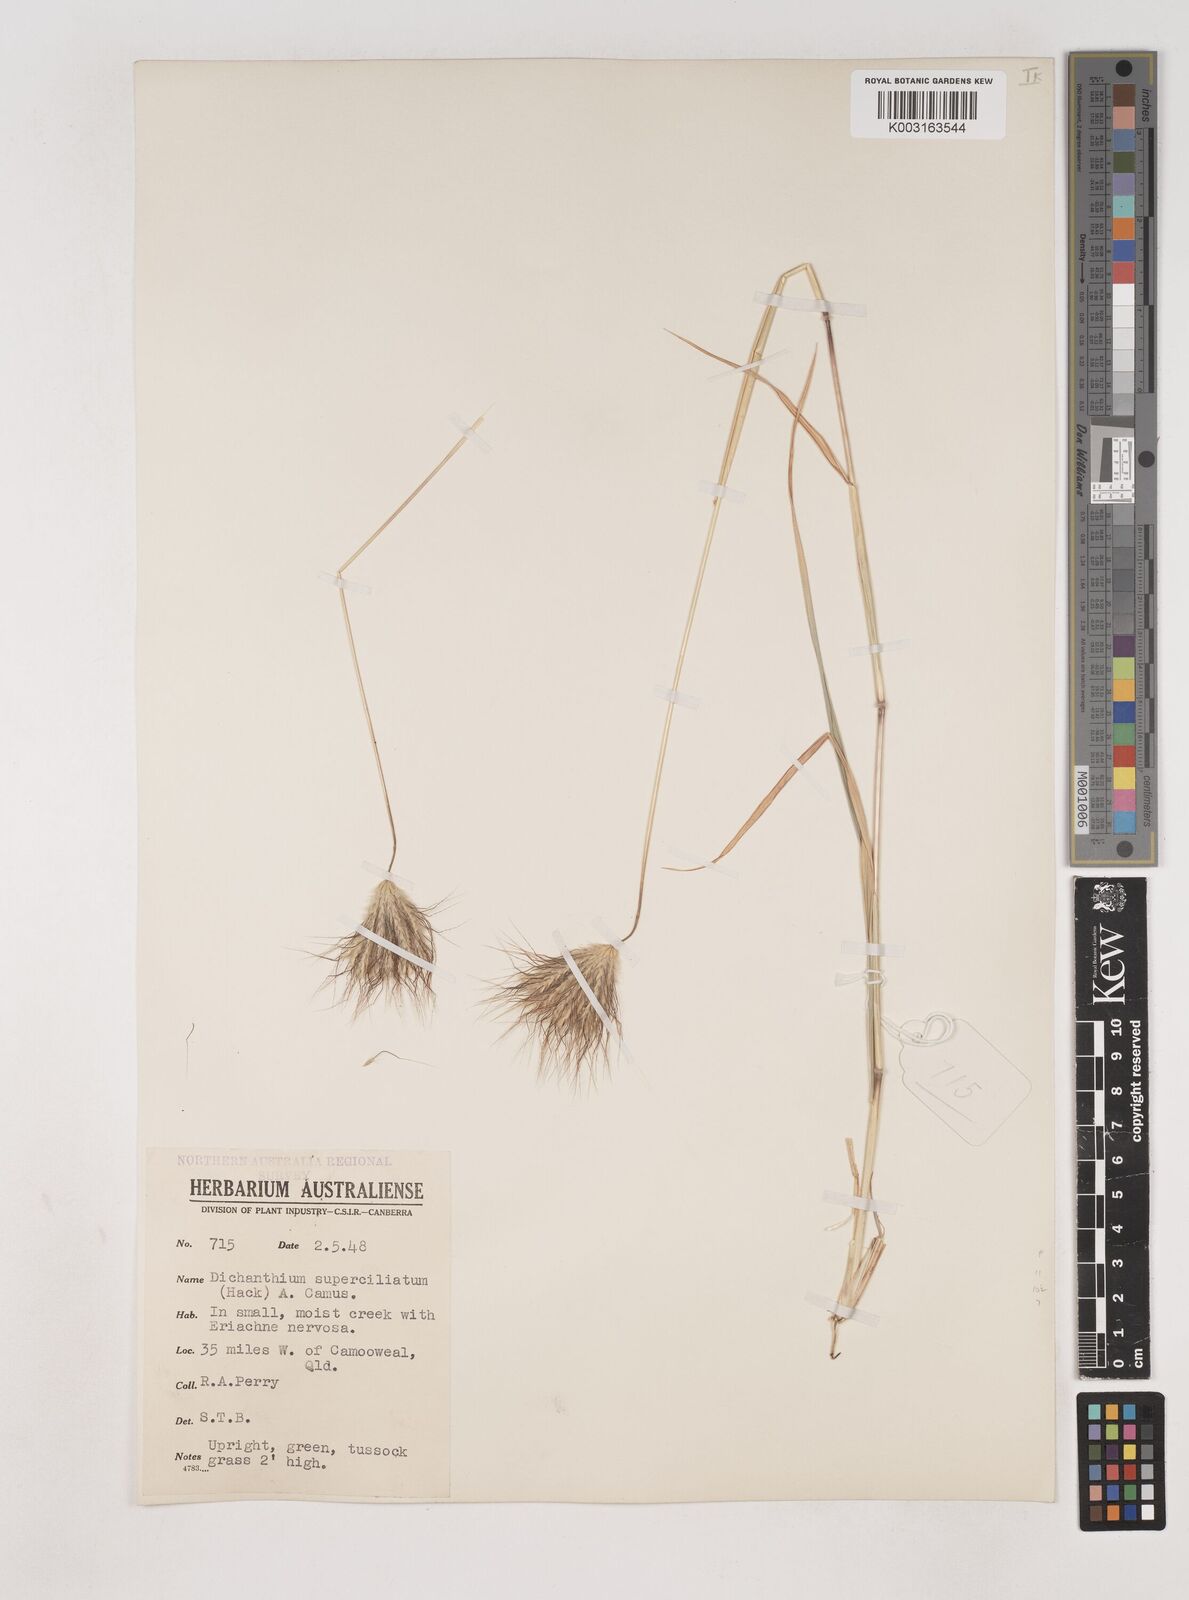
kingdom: Plantae
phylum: Tracheophyta
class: Liliopsida
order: Poales
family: Poaceae
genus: Dichanthium
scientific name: Dichanthium sericeum
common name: Silky bluestem
